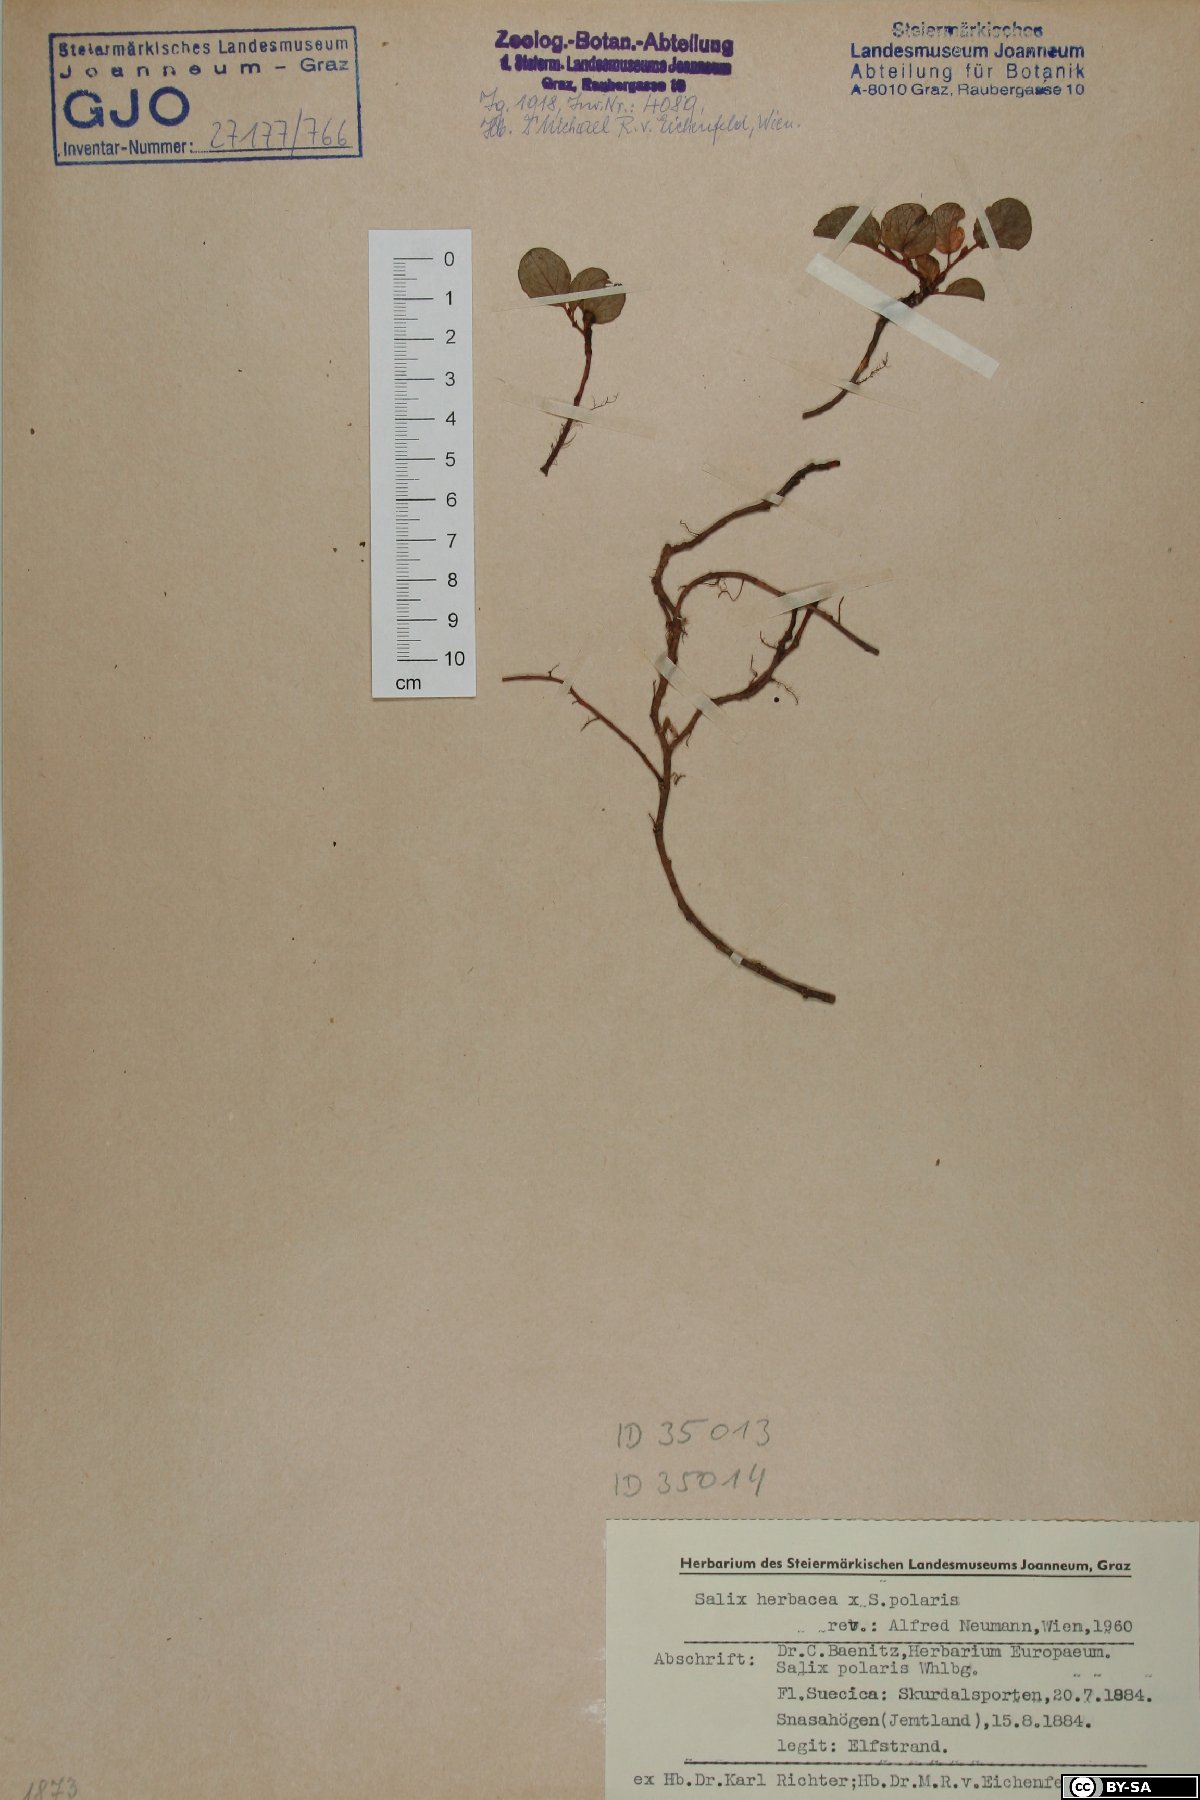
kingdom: Plantae
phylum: Tracheophyta
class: Magnoliopsida
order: Malpighiales
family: Salicaceae
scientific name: Salicaceae
